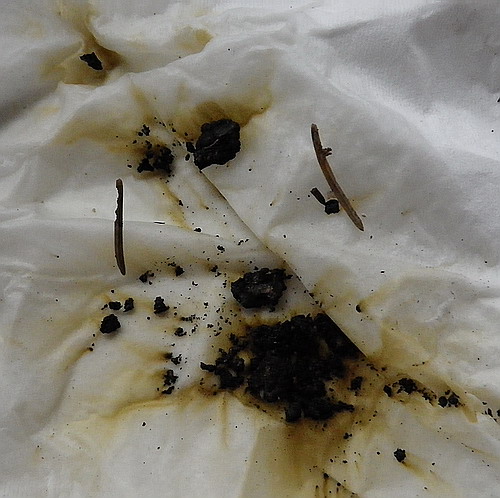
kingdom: Fungi
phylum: Ascomycota
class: Sordariomycetes
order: Xylariales
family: Hypoxylaceae
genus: Jackrogersella
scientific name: Jackrogersella multiformis
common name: foranderlig kulbær
